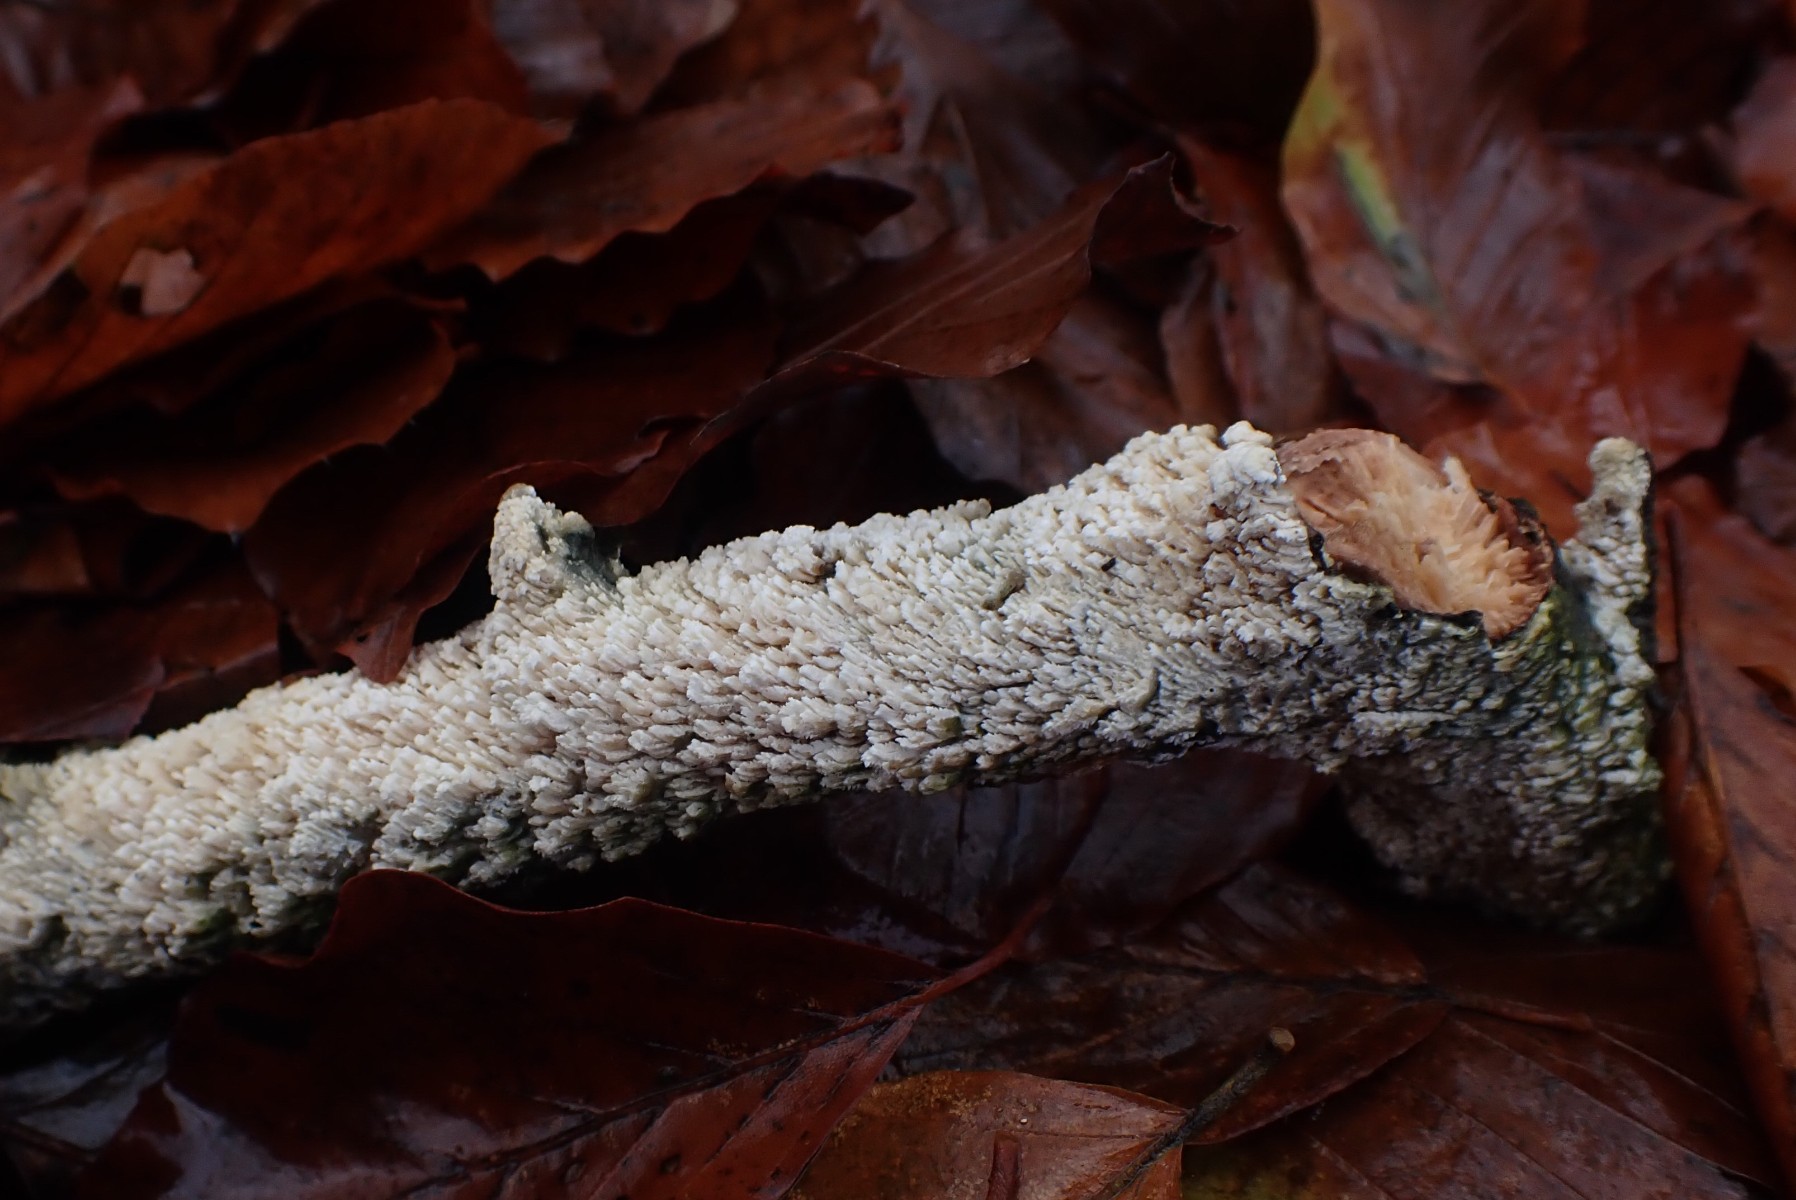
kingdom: Fungi
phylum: Basidiomycota
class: Agaricomycetes
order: Hymenochaetales
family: Schizoporaceae
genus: Schizopora
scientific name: Schizopora paradoxa
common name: hvid tandsvamp
